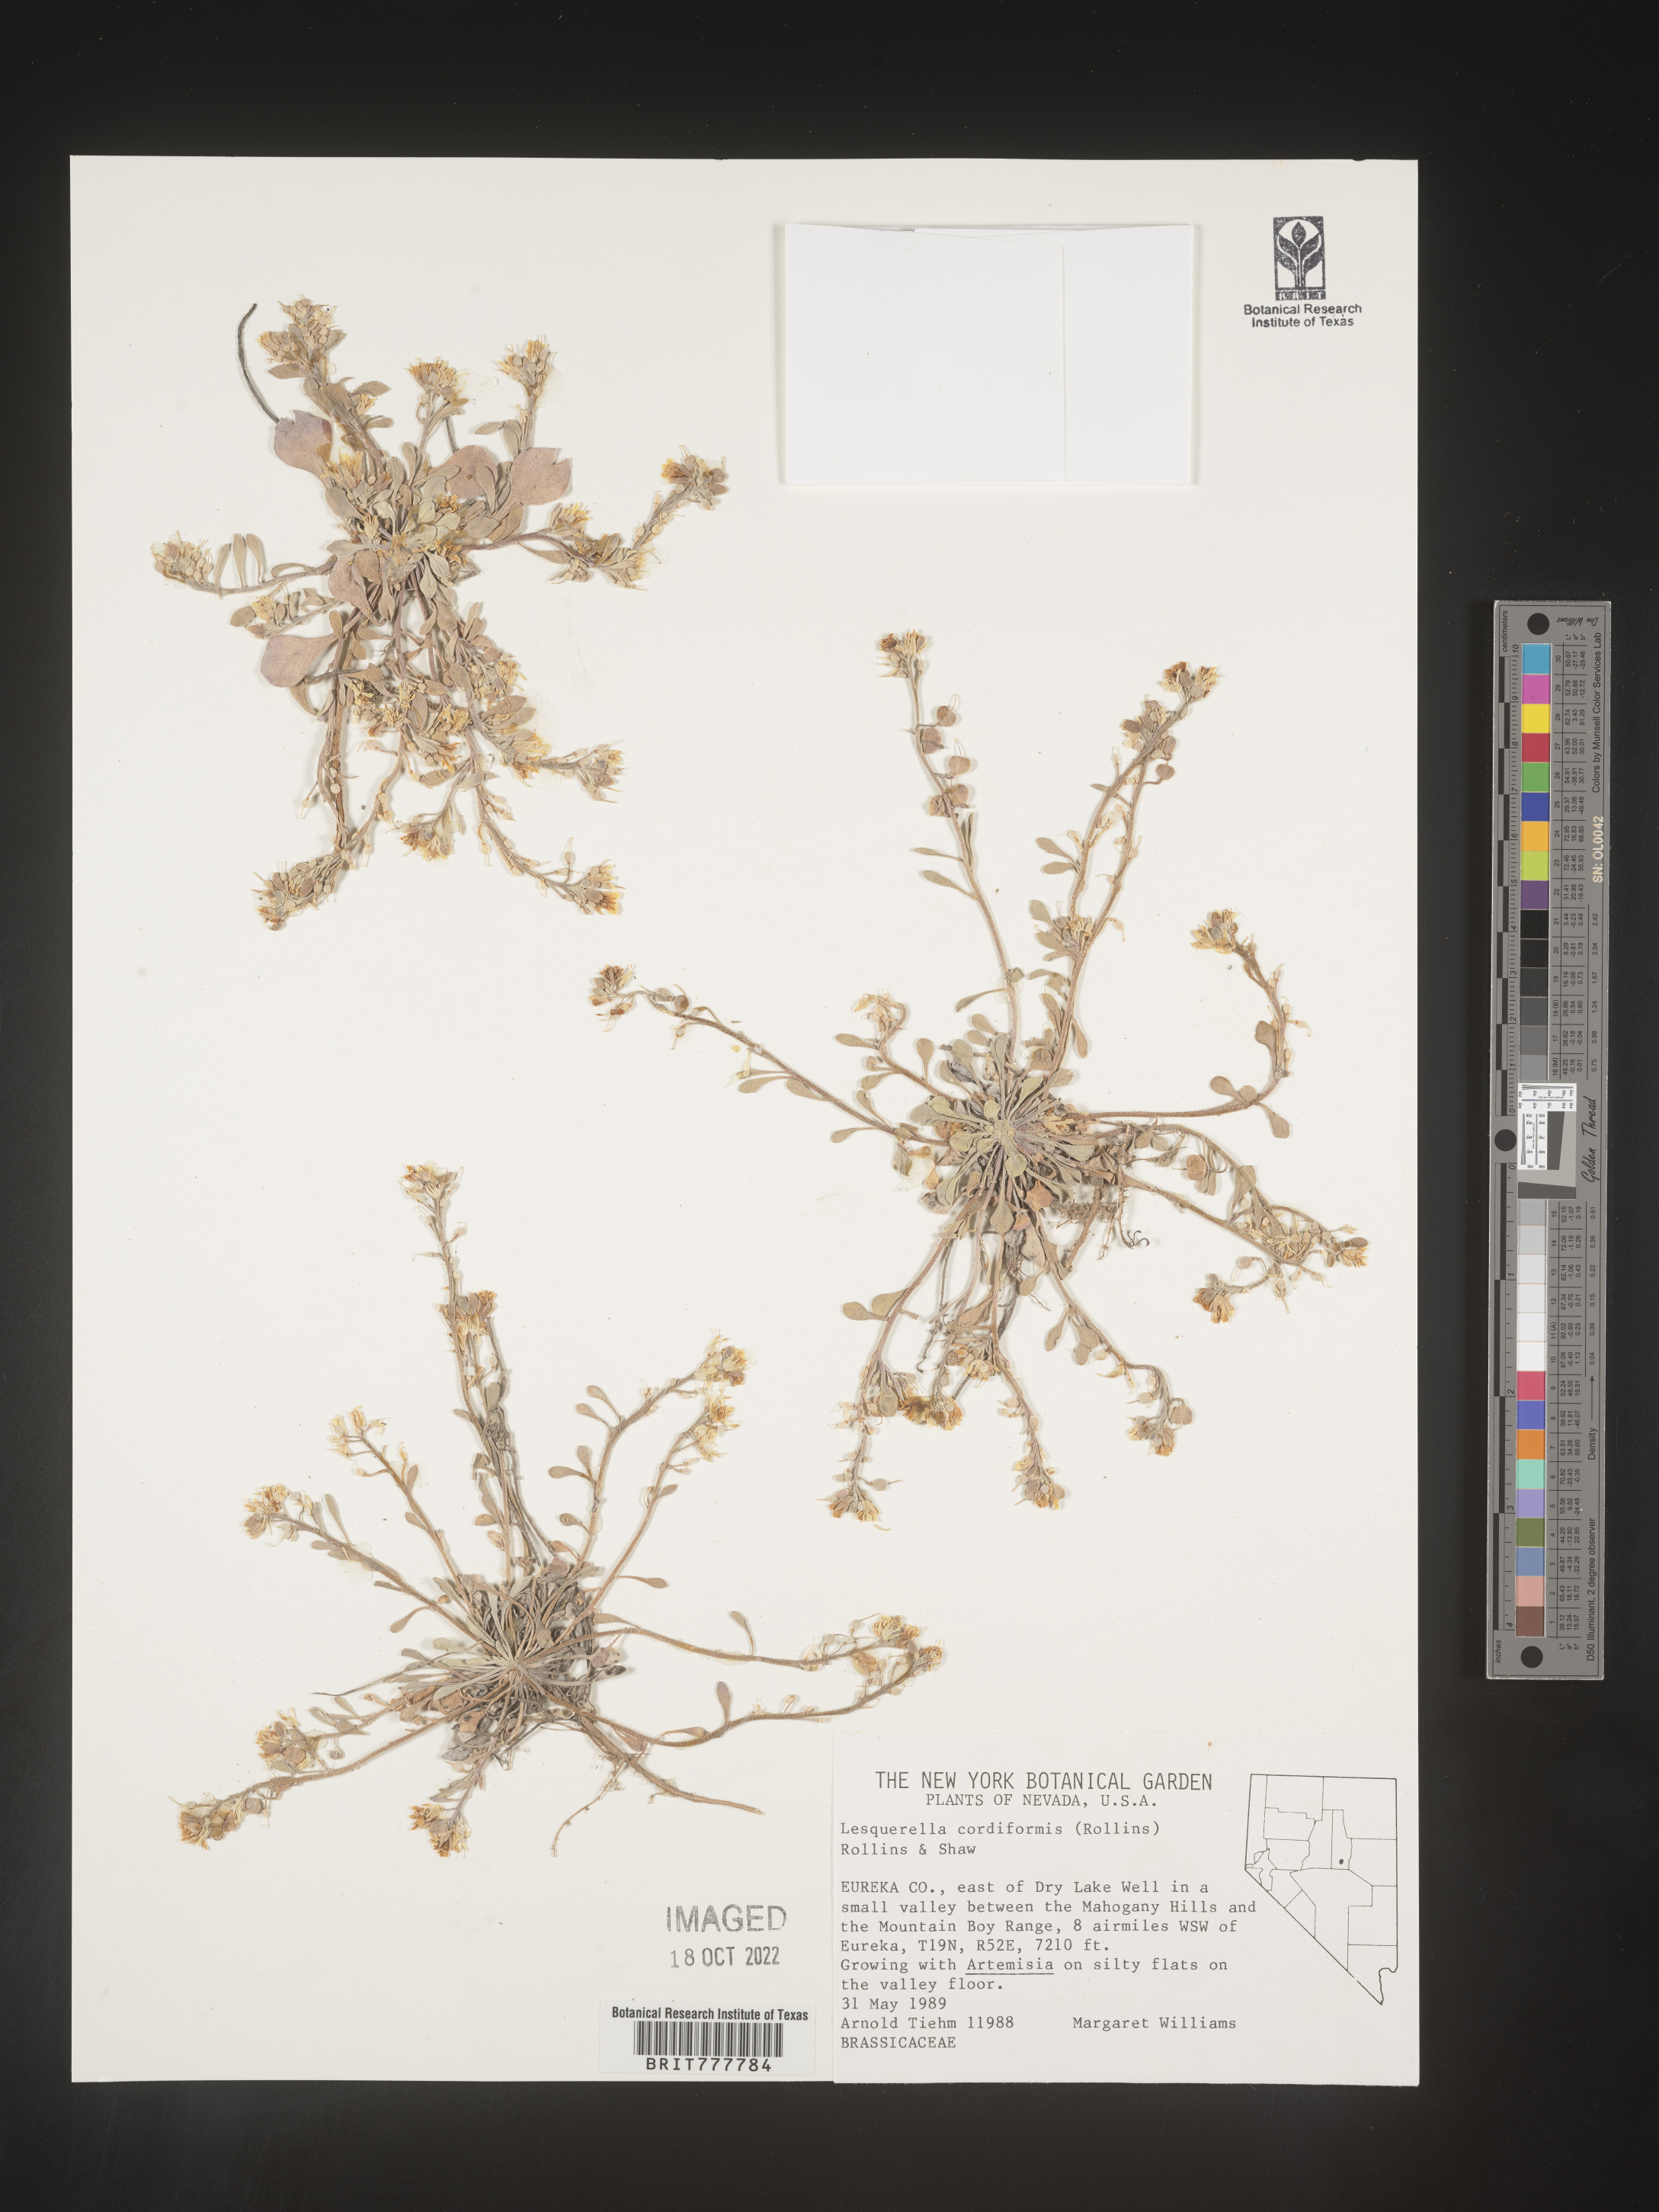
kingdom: Chromista
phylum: Cercozoa
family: Psammonobiotidae
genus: Lesquerella
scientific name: Lesquerella
